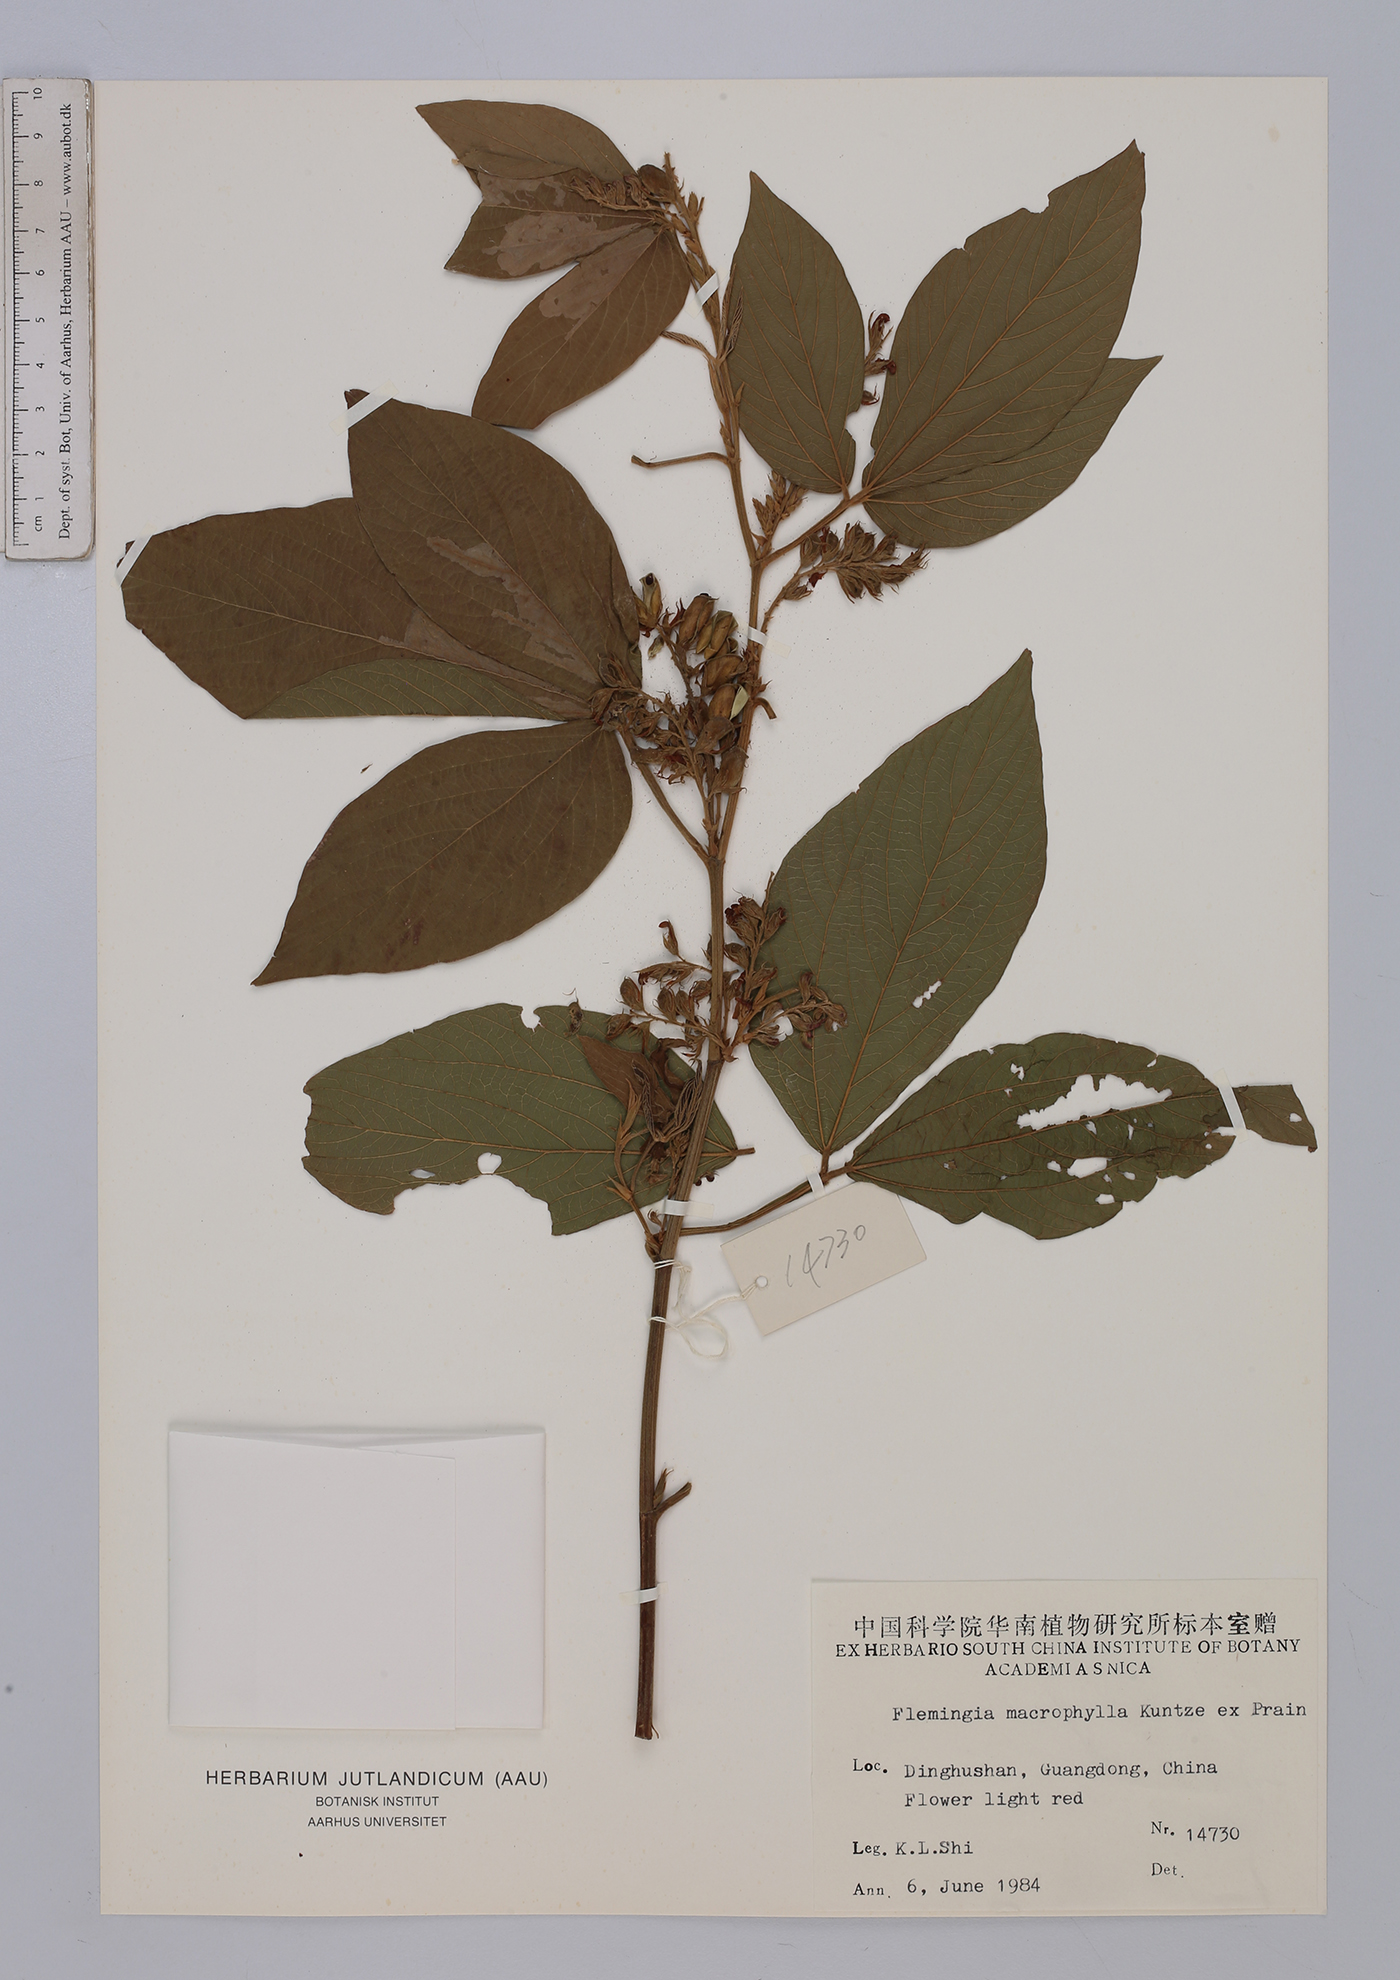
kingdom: Plantae
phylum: Tracheophyta
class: Magnoliopsida
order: Fabales
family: Fabaceae
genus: Flemingia
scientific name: Flemingia macrophylla
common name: Flemingia
